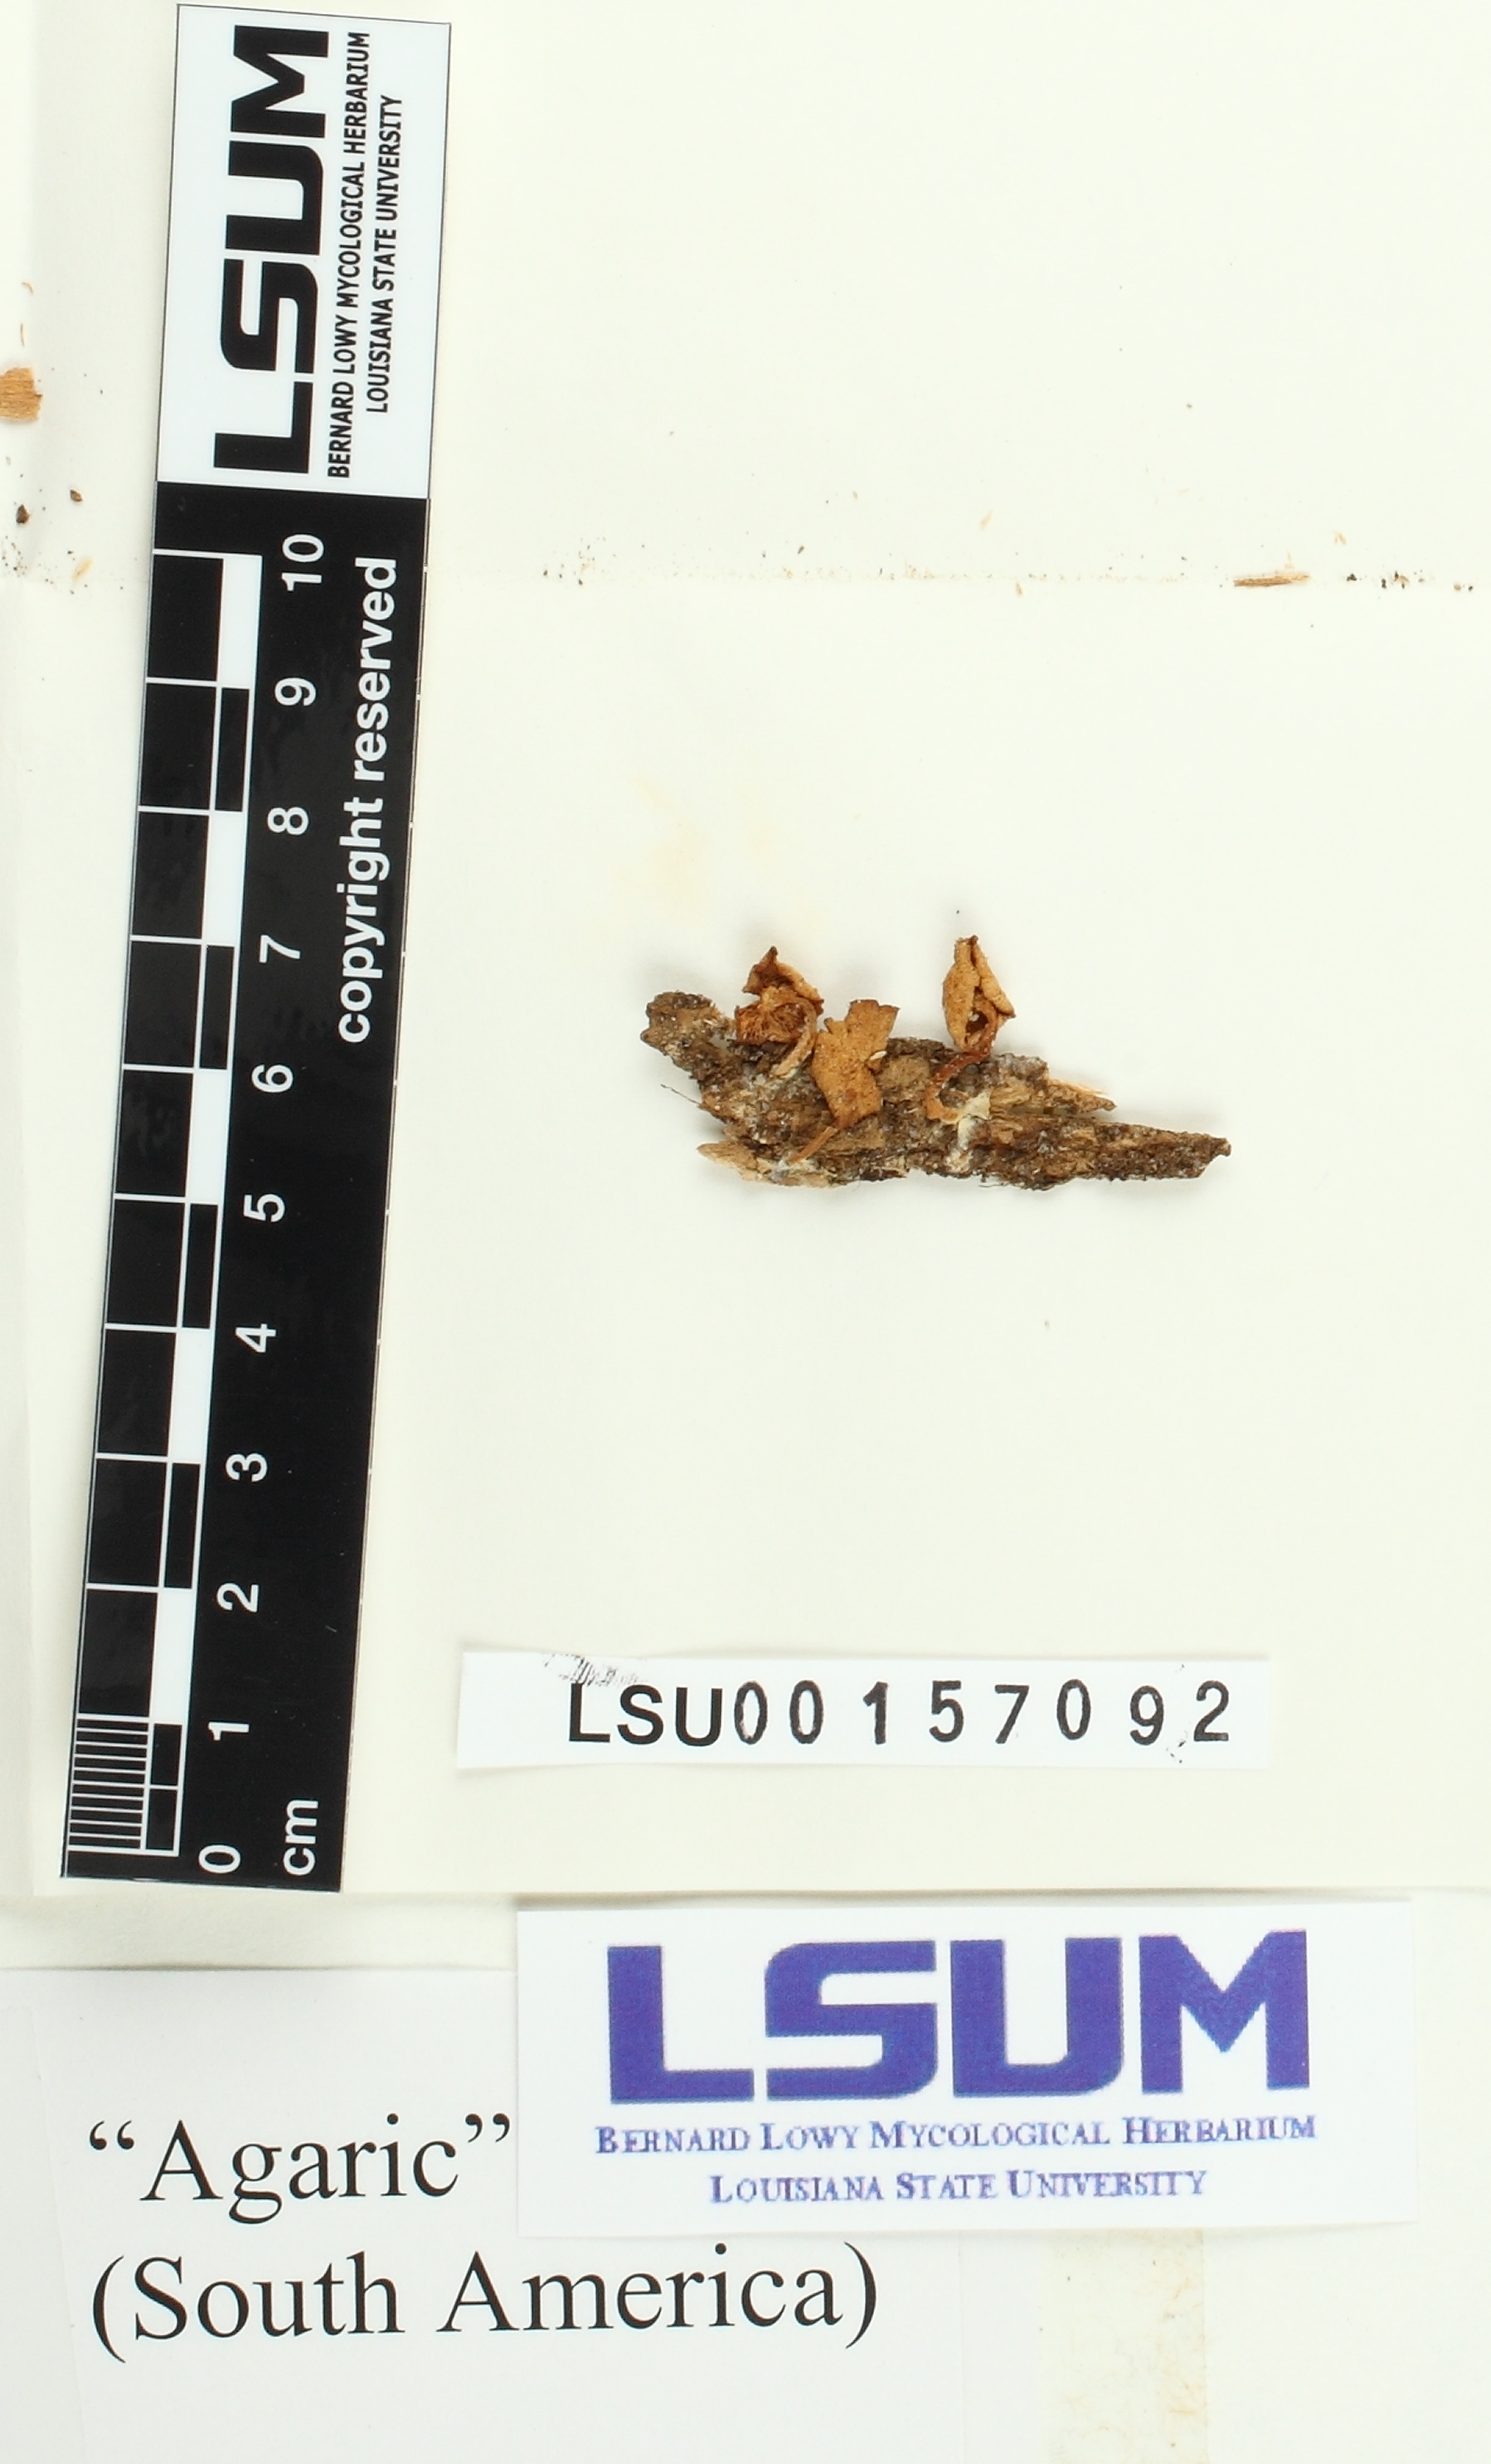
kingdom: Fungi
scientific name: Fungi
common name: Fungi
